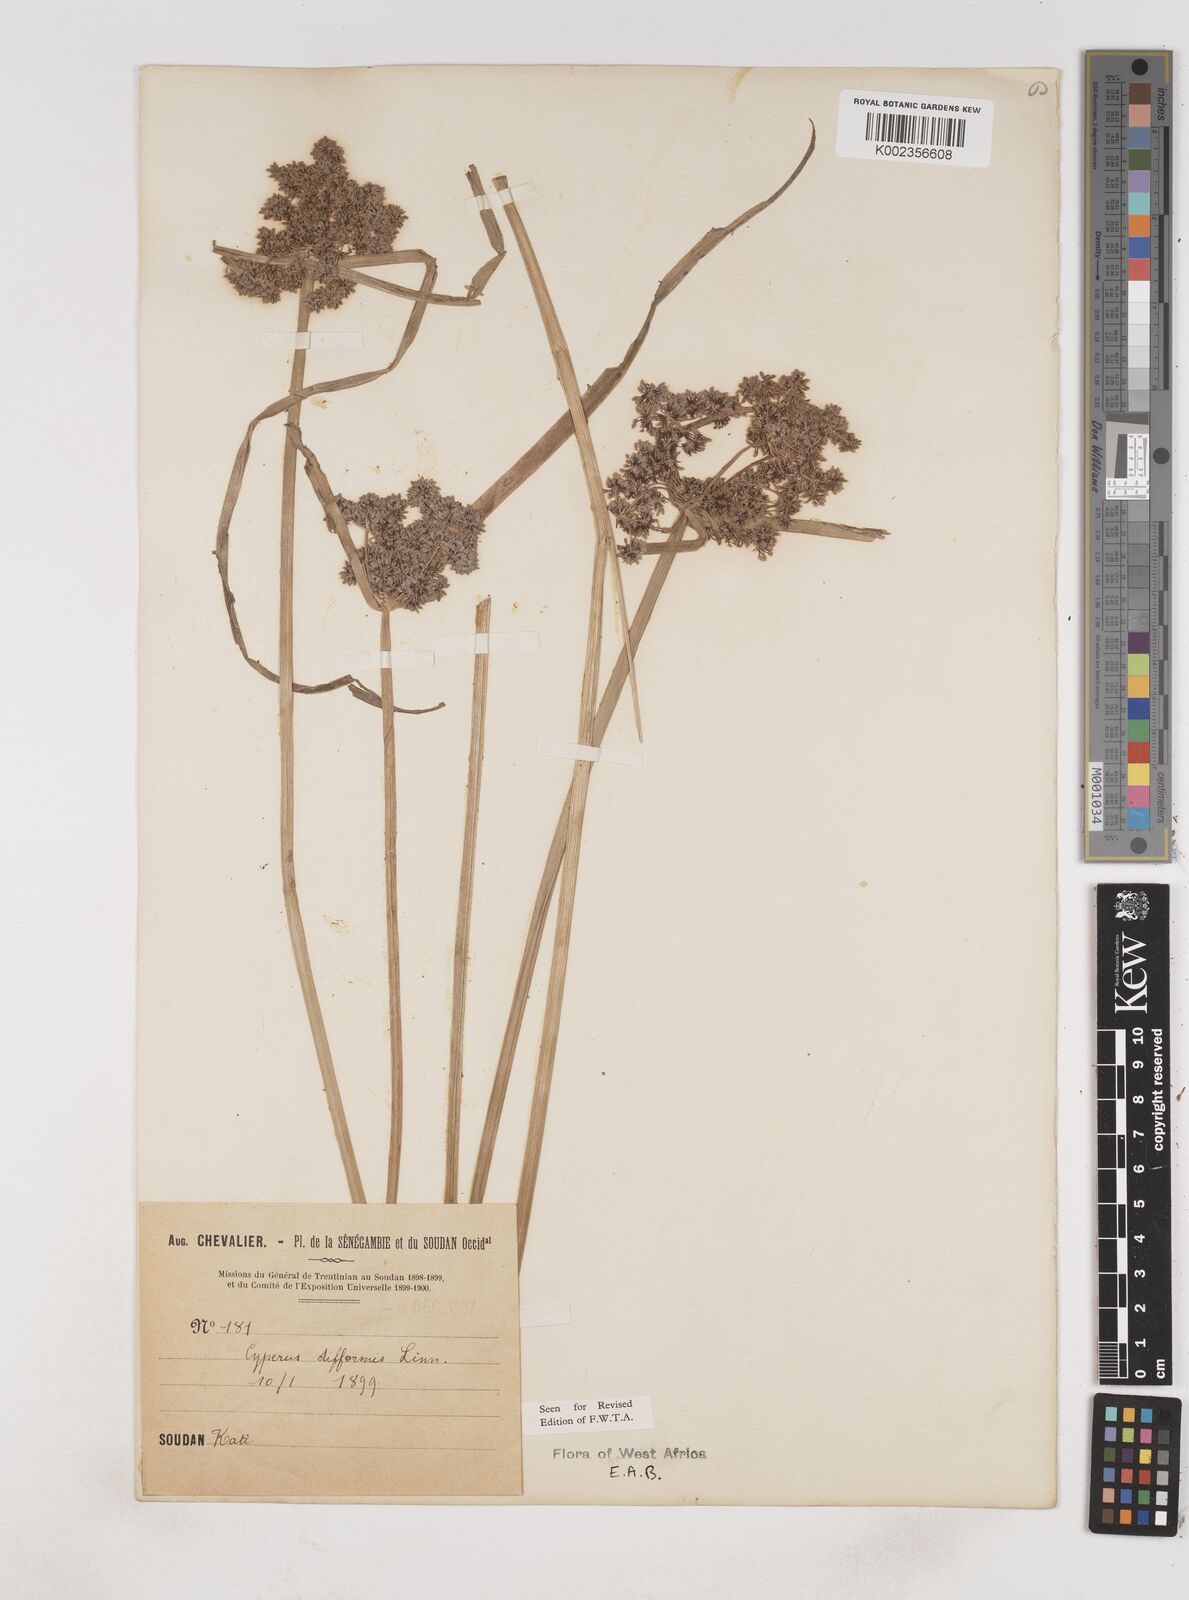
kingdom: Plantae
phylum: Tracheophyta
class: Liliopsida
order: Poales
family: Cyperaceae
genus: Cyperus
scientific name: Cyperus difformis
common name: Variable flatsedge
